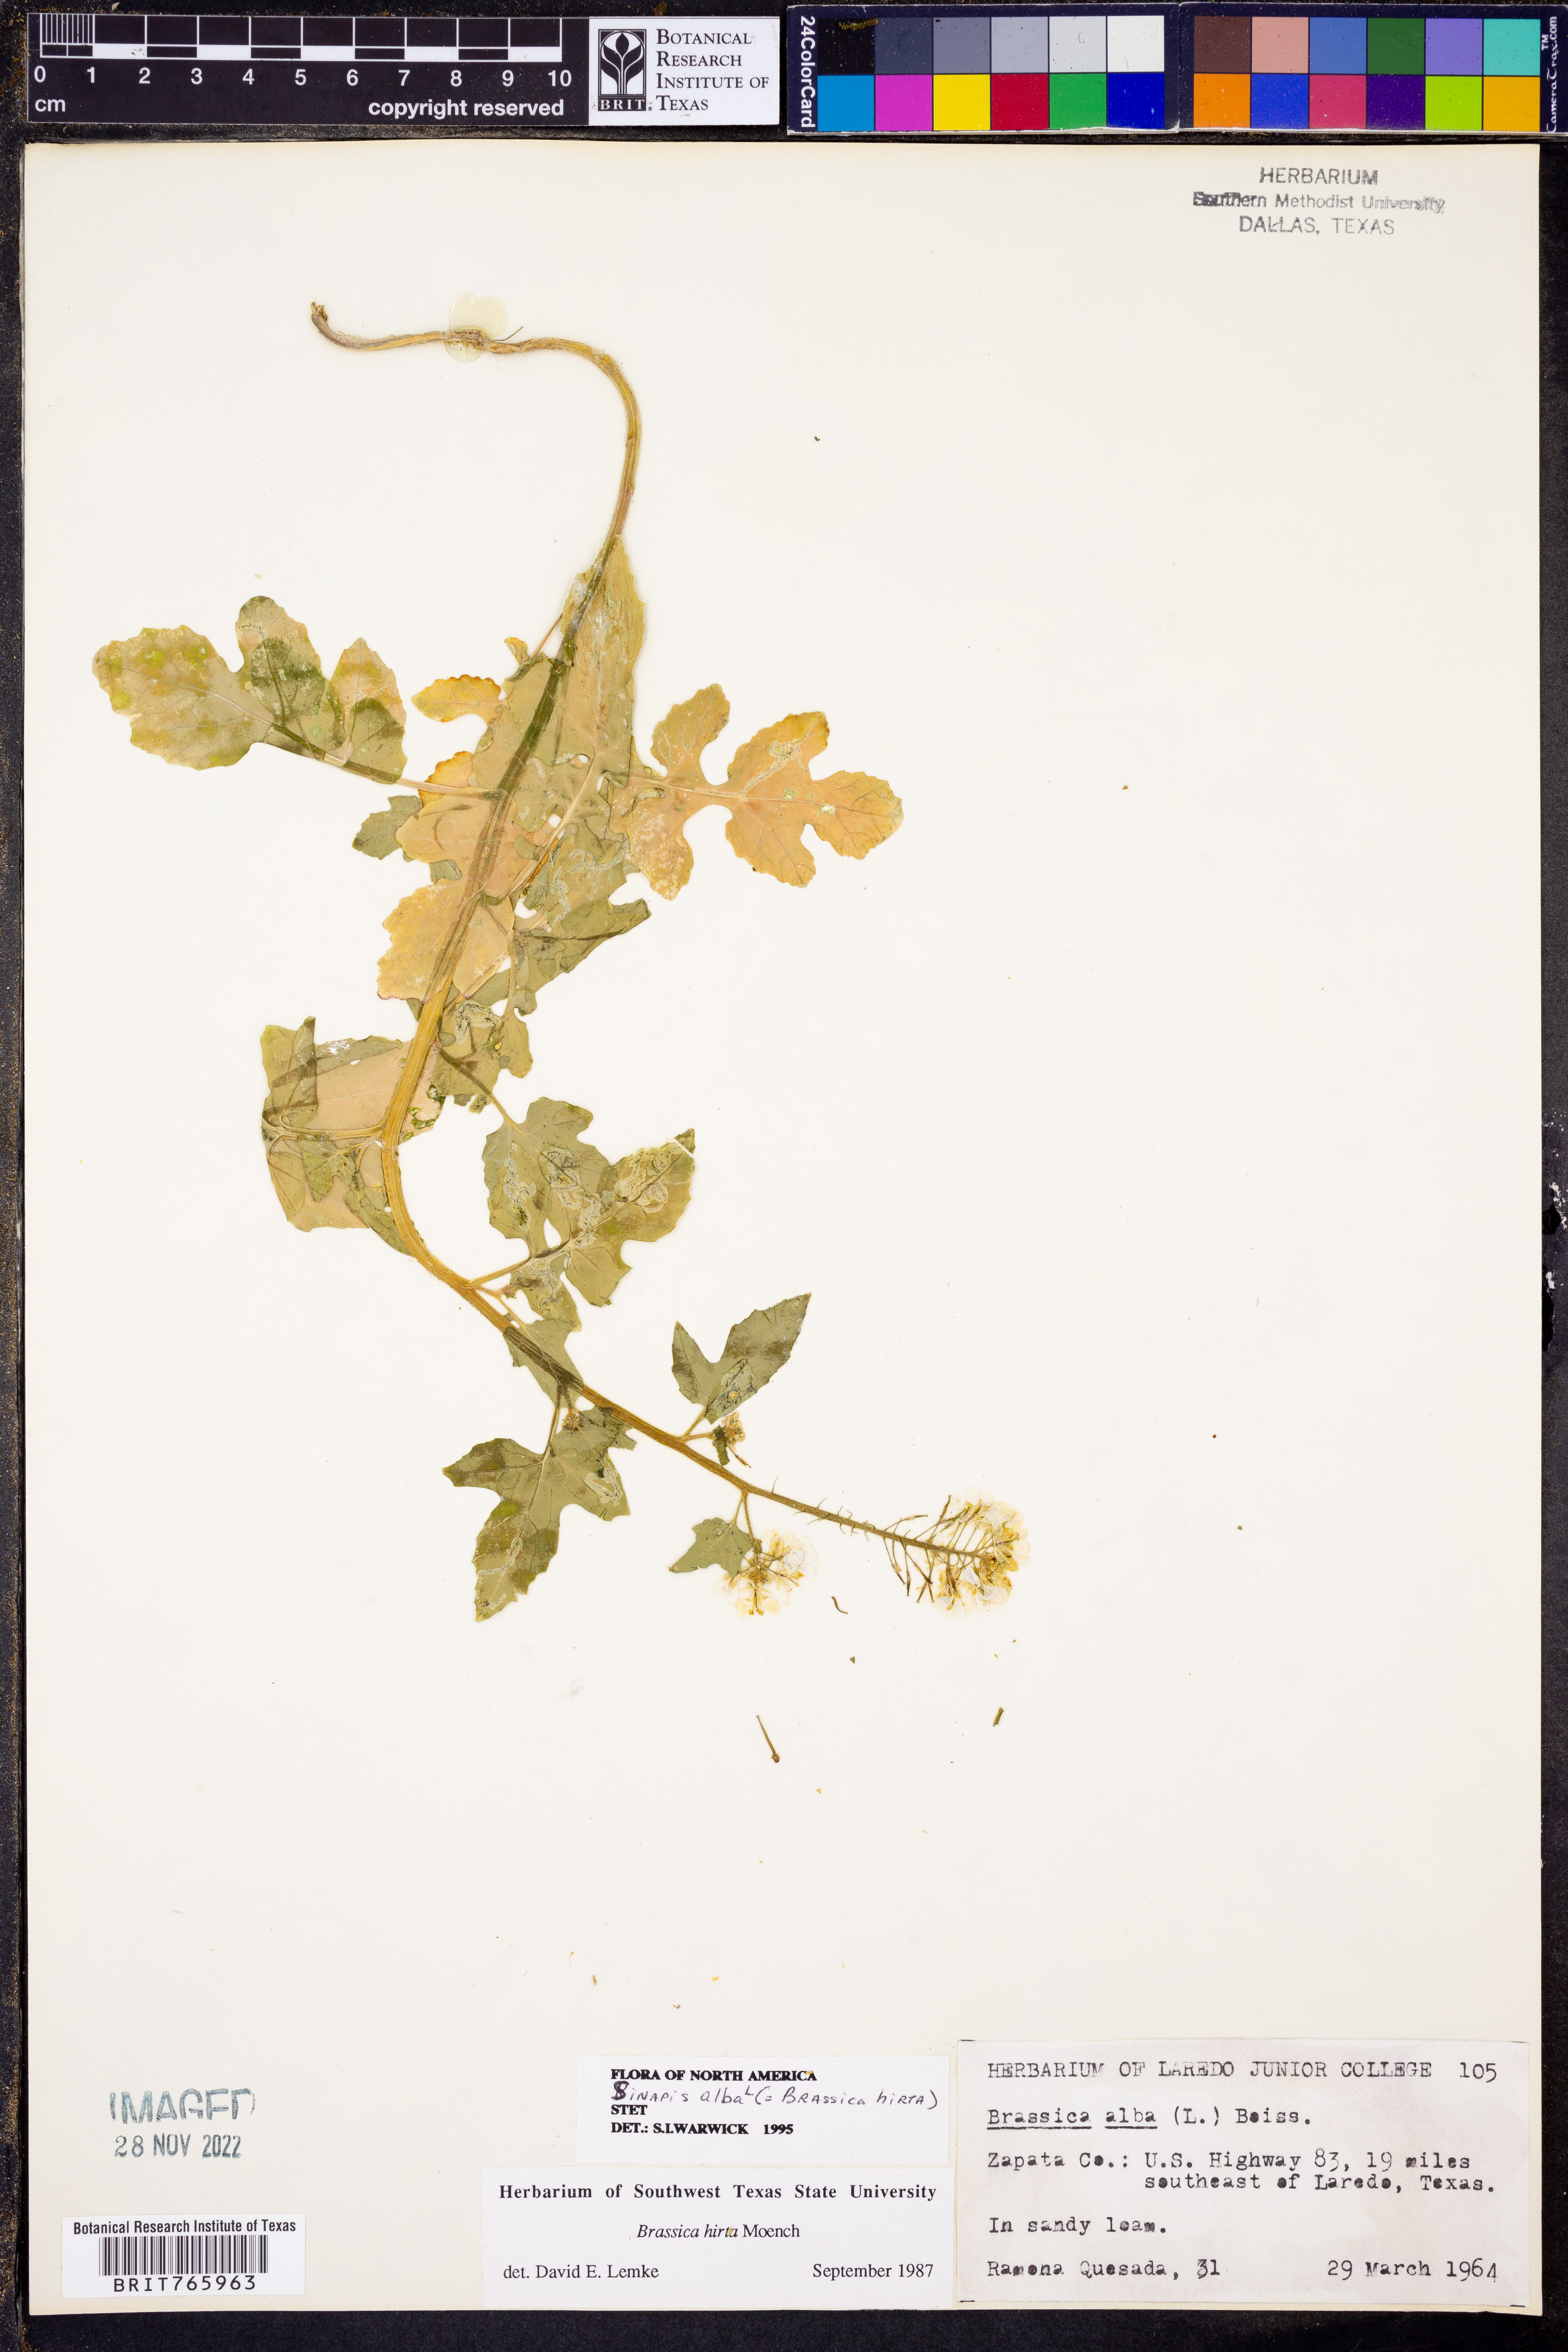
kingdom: Plantae
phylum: Tracheophyta
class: Magnoliopsida
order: Brassicales
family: Brassicaceae
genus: Sinapis
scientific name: Sinapis alba
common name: White mustard
